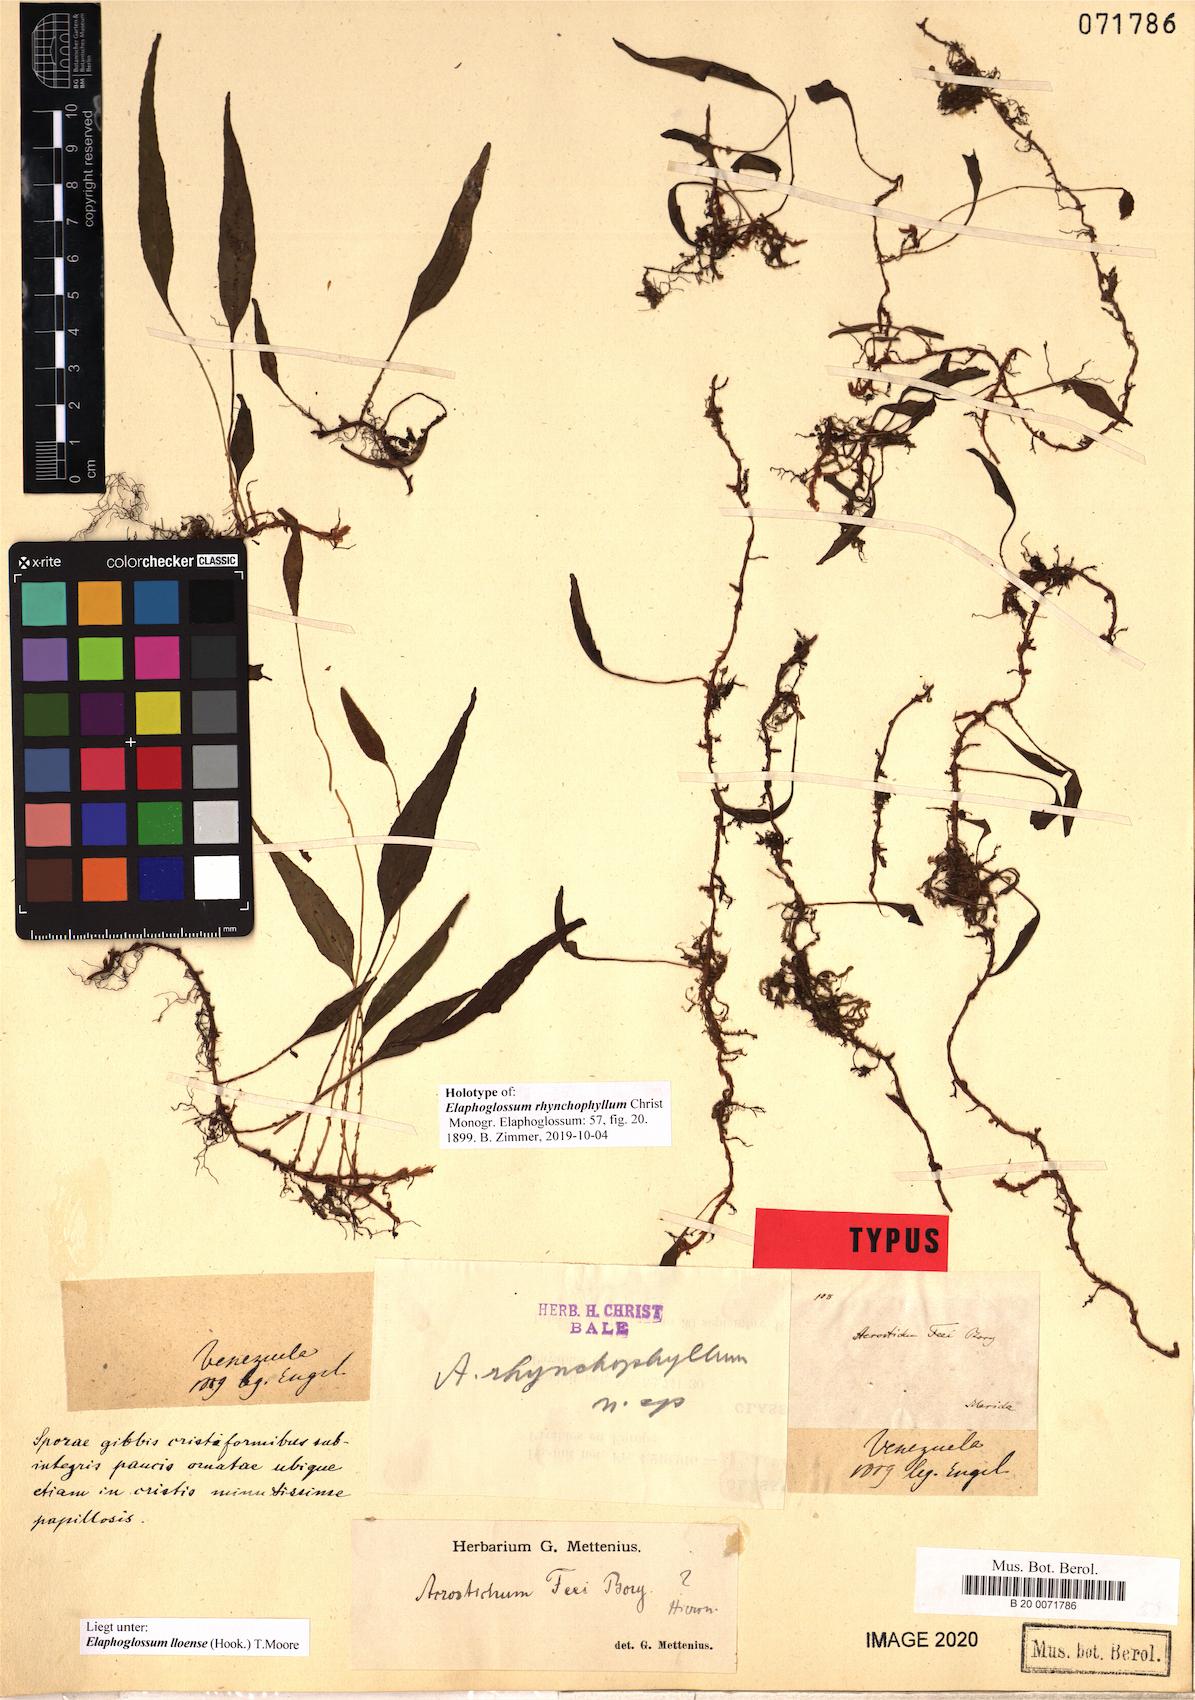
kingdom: Plantae
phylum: Tracheophyta
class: Polypodiopsida
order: Polypodiales
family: Dryopteridaceae
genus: Elaphoglossum
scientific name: Elaphoglossum lloense
